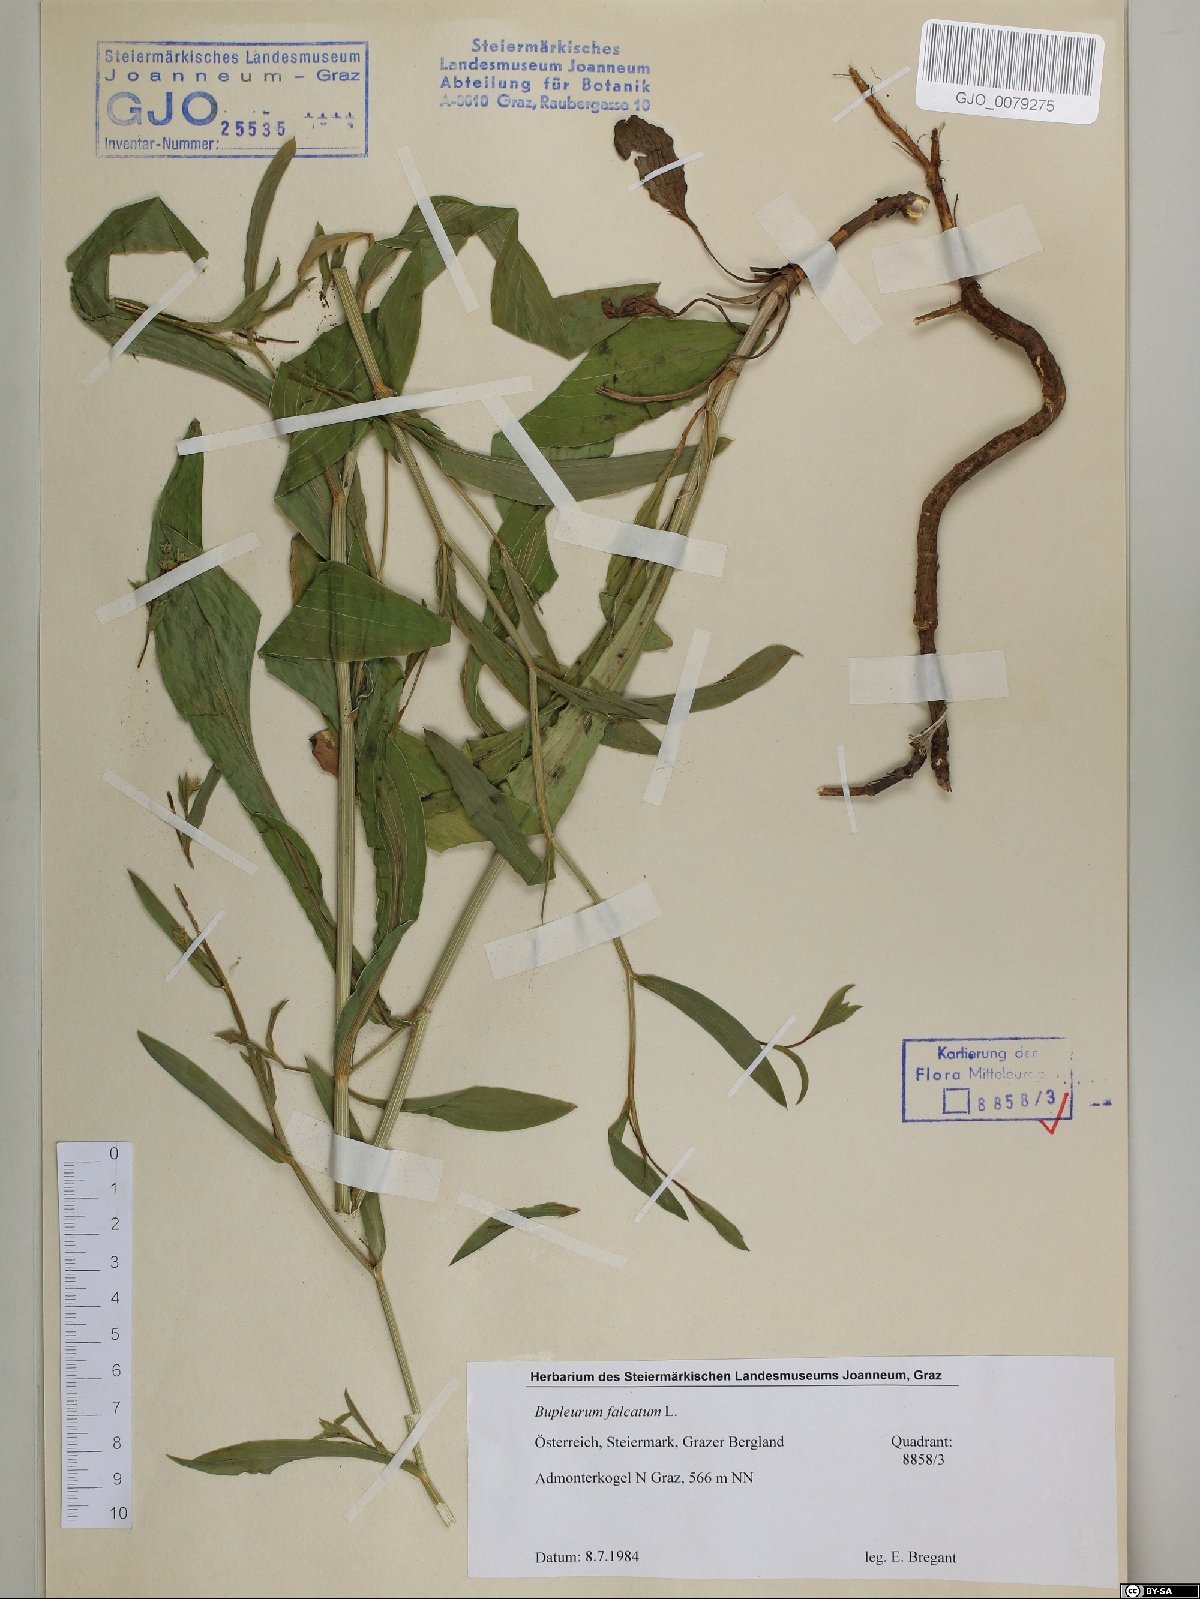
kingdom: Plantae
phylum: Tracheophyta
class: Magnoliopsida
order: Apiales
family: Apiaceae
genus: Bupleurum
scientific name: Bupleurum falcatum
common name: Sickle-leaved hare's-ear
